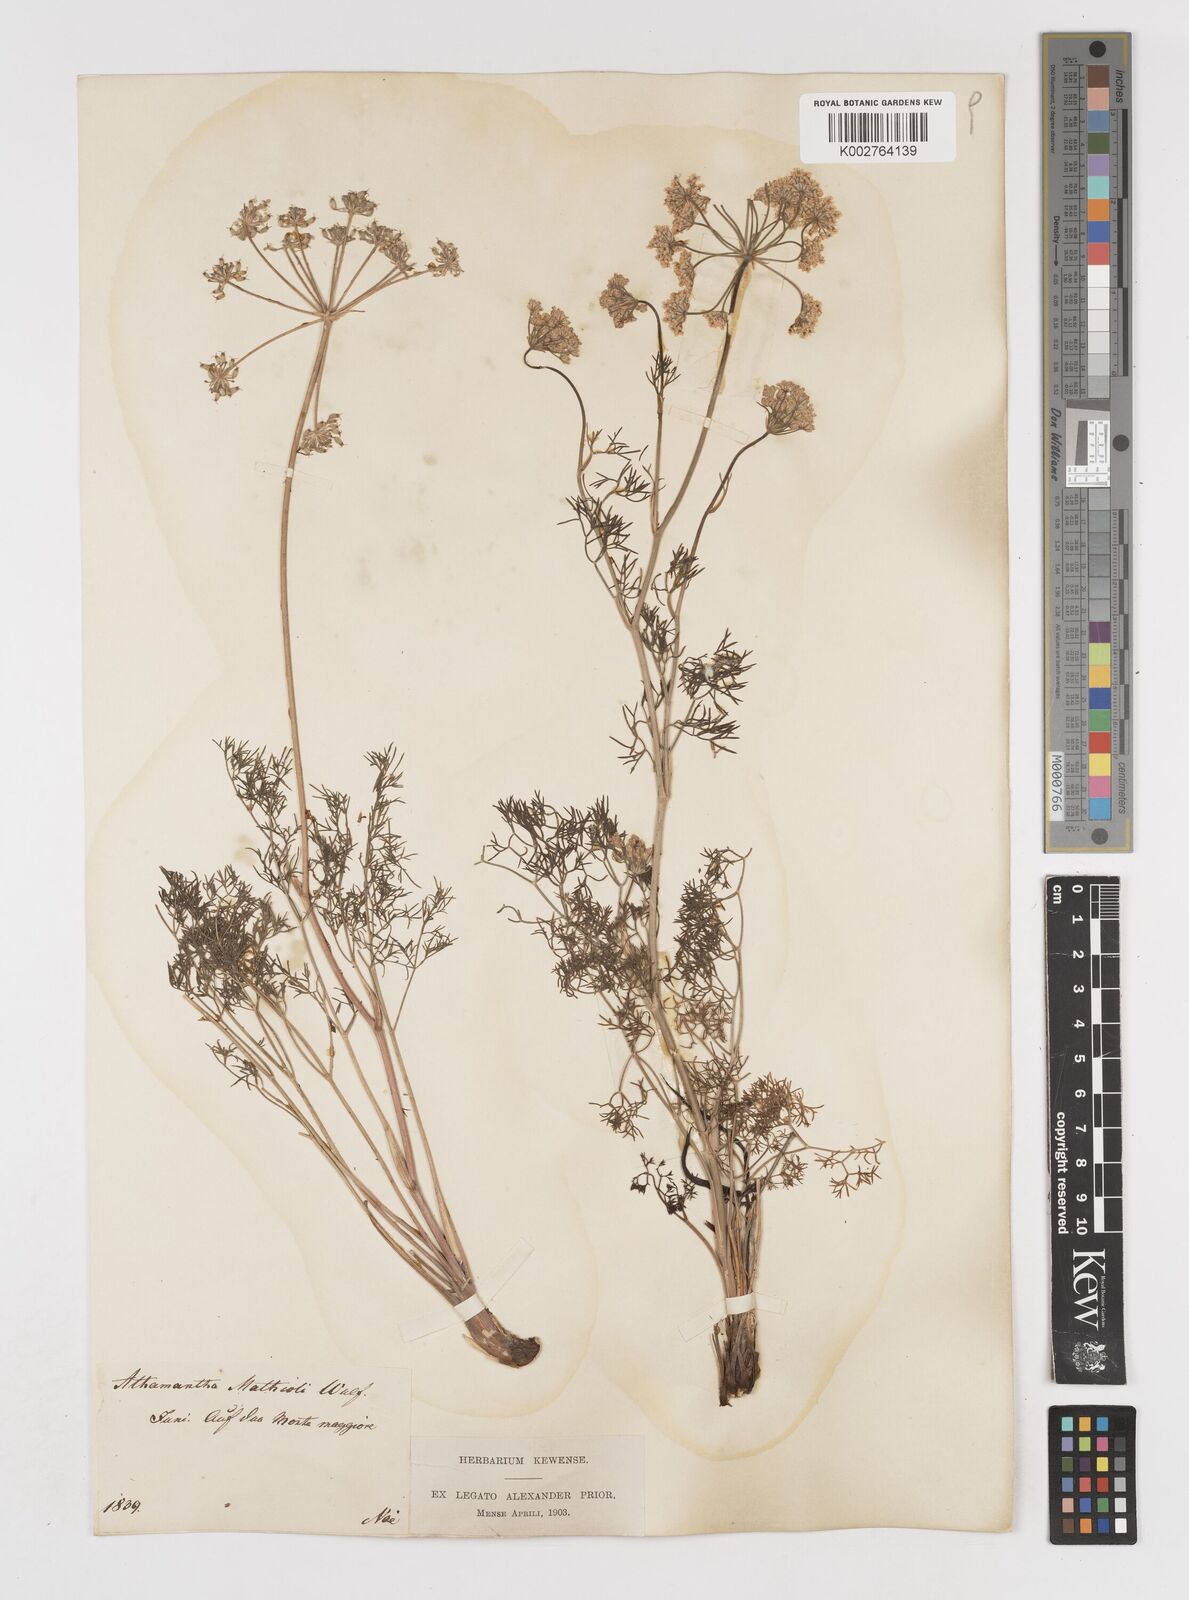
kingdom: Plantae
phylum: Tracheophyta
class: Magnoliopsida
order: Apiales
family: Apiaceae
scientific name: Apiaceae
